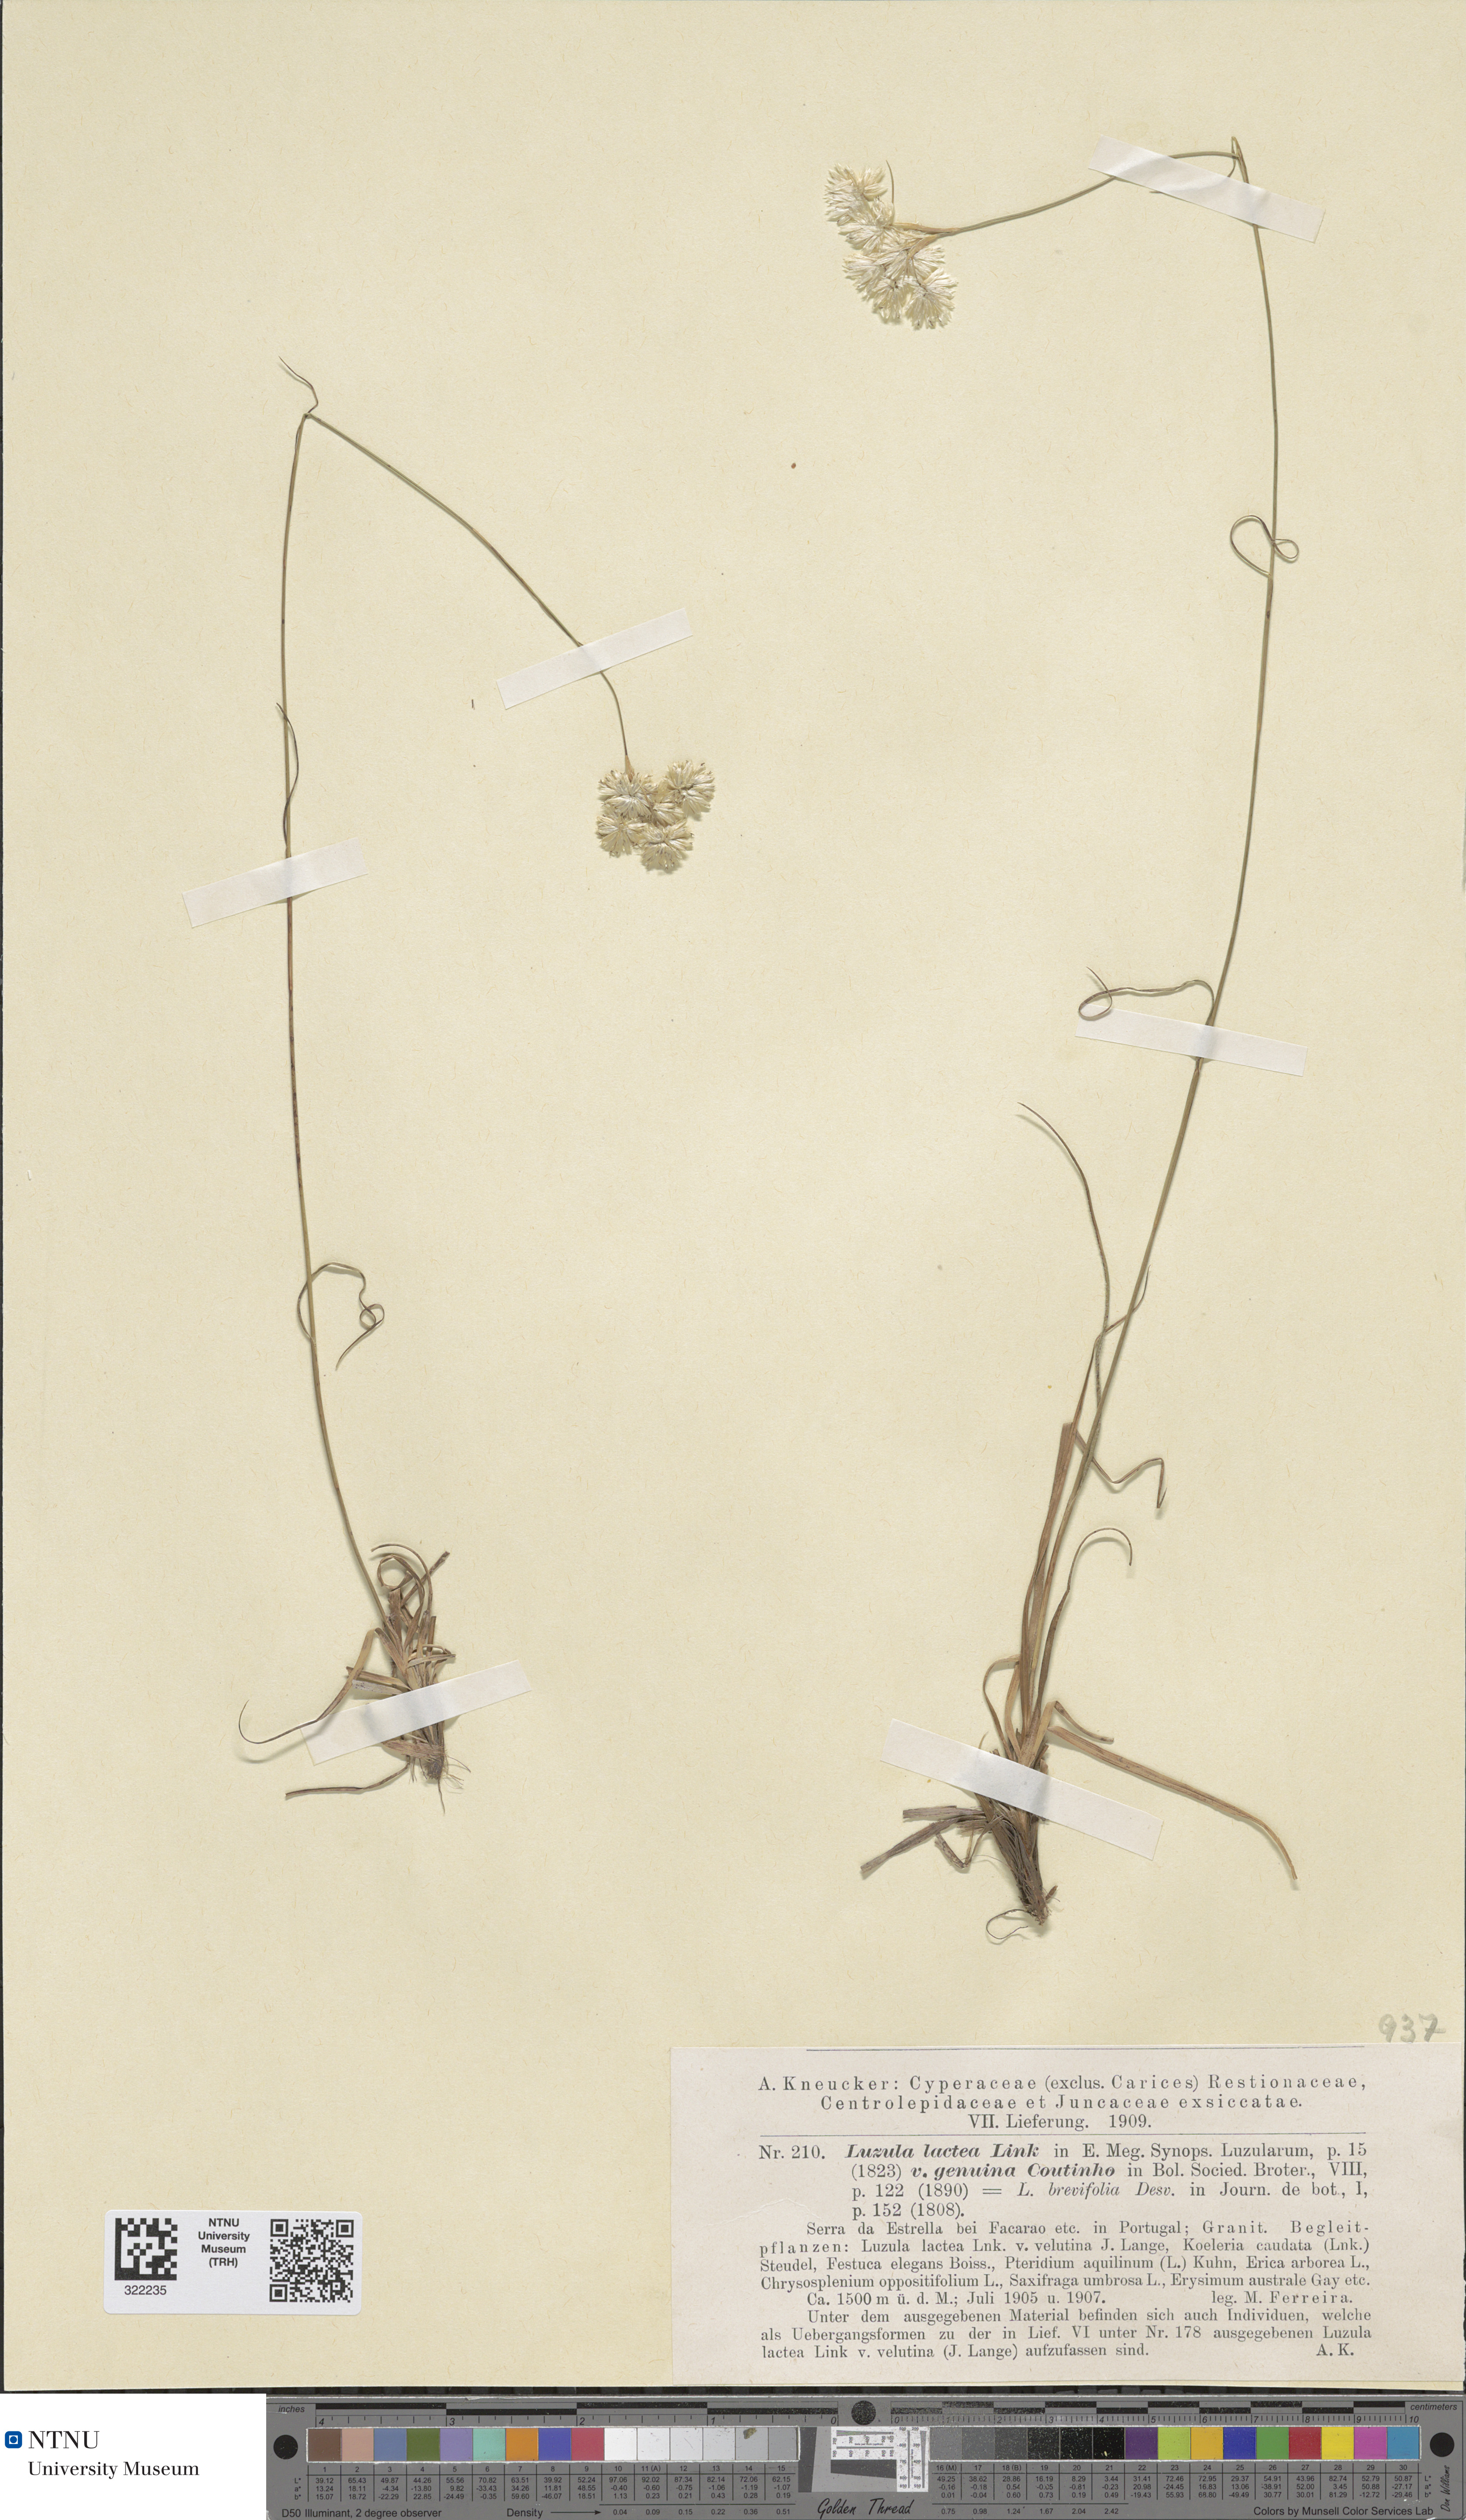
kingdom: Plantae
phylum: Tracheophyta
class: Liliopsida
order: Poales
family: Juncaceae
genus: Luzula
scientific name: Luzula lactea
